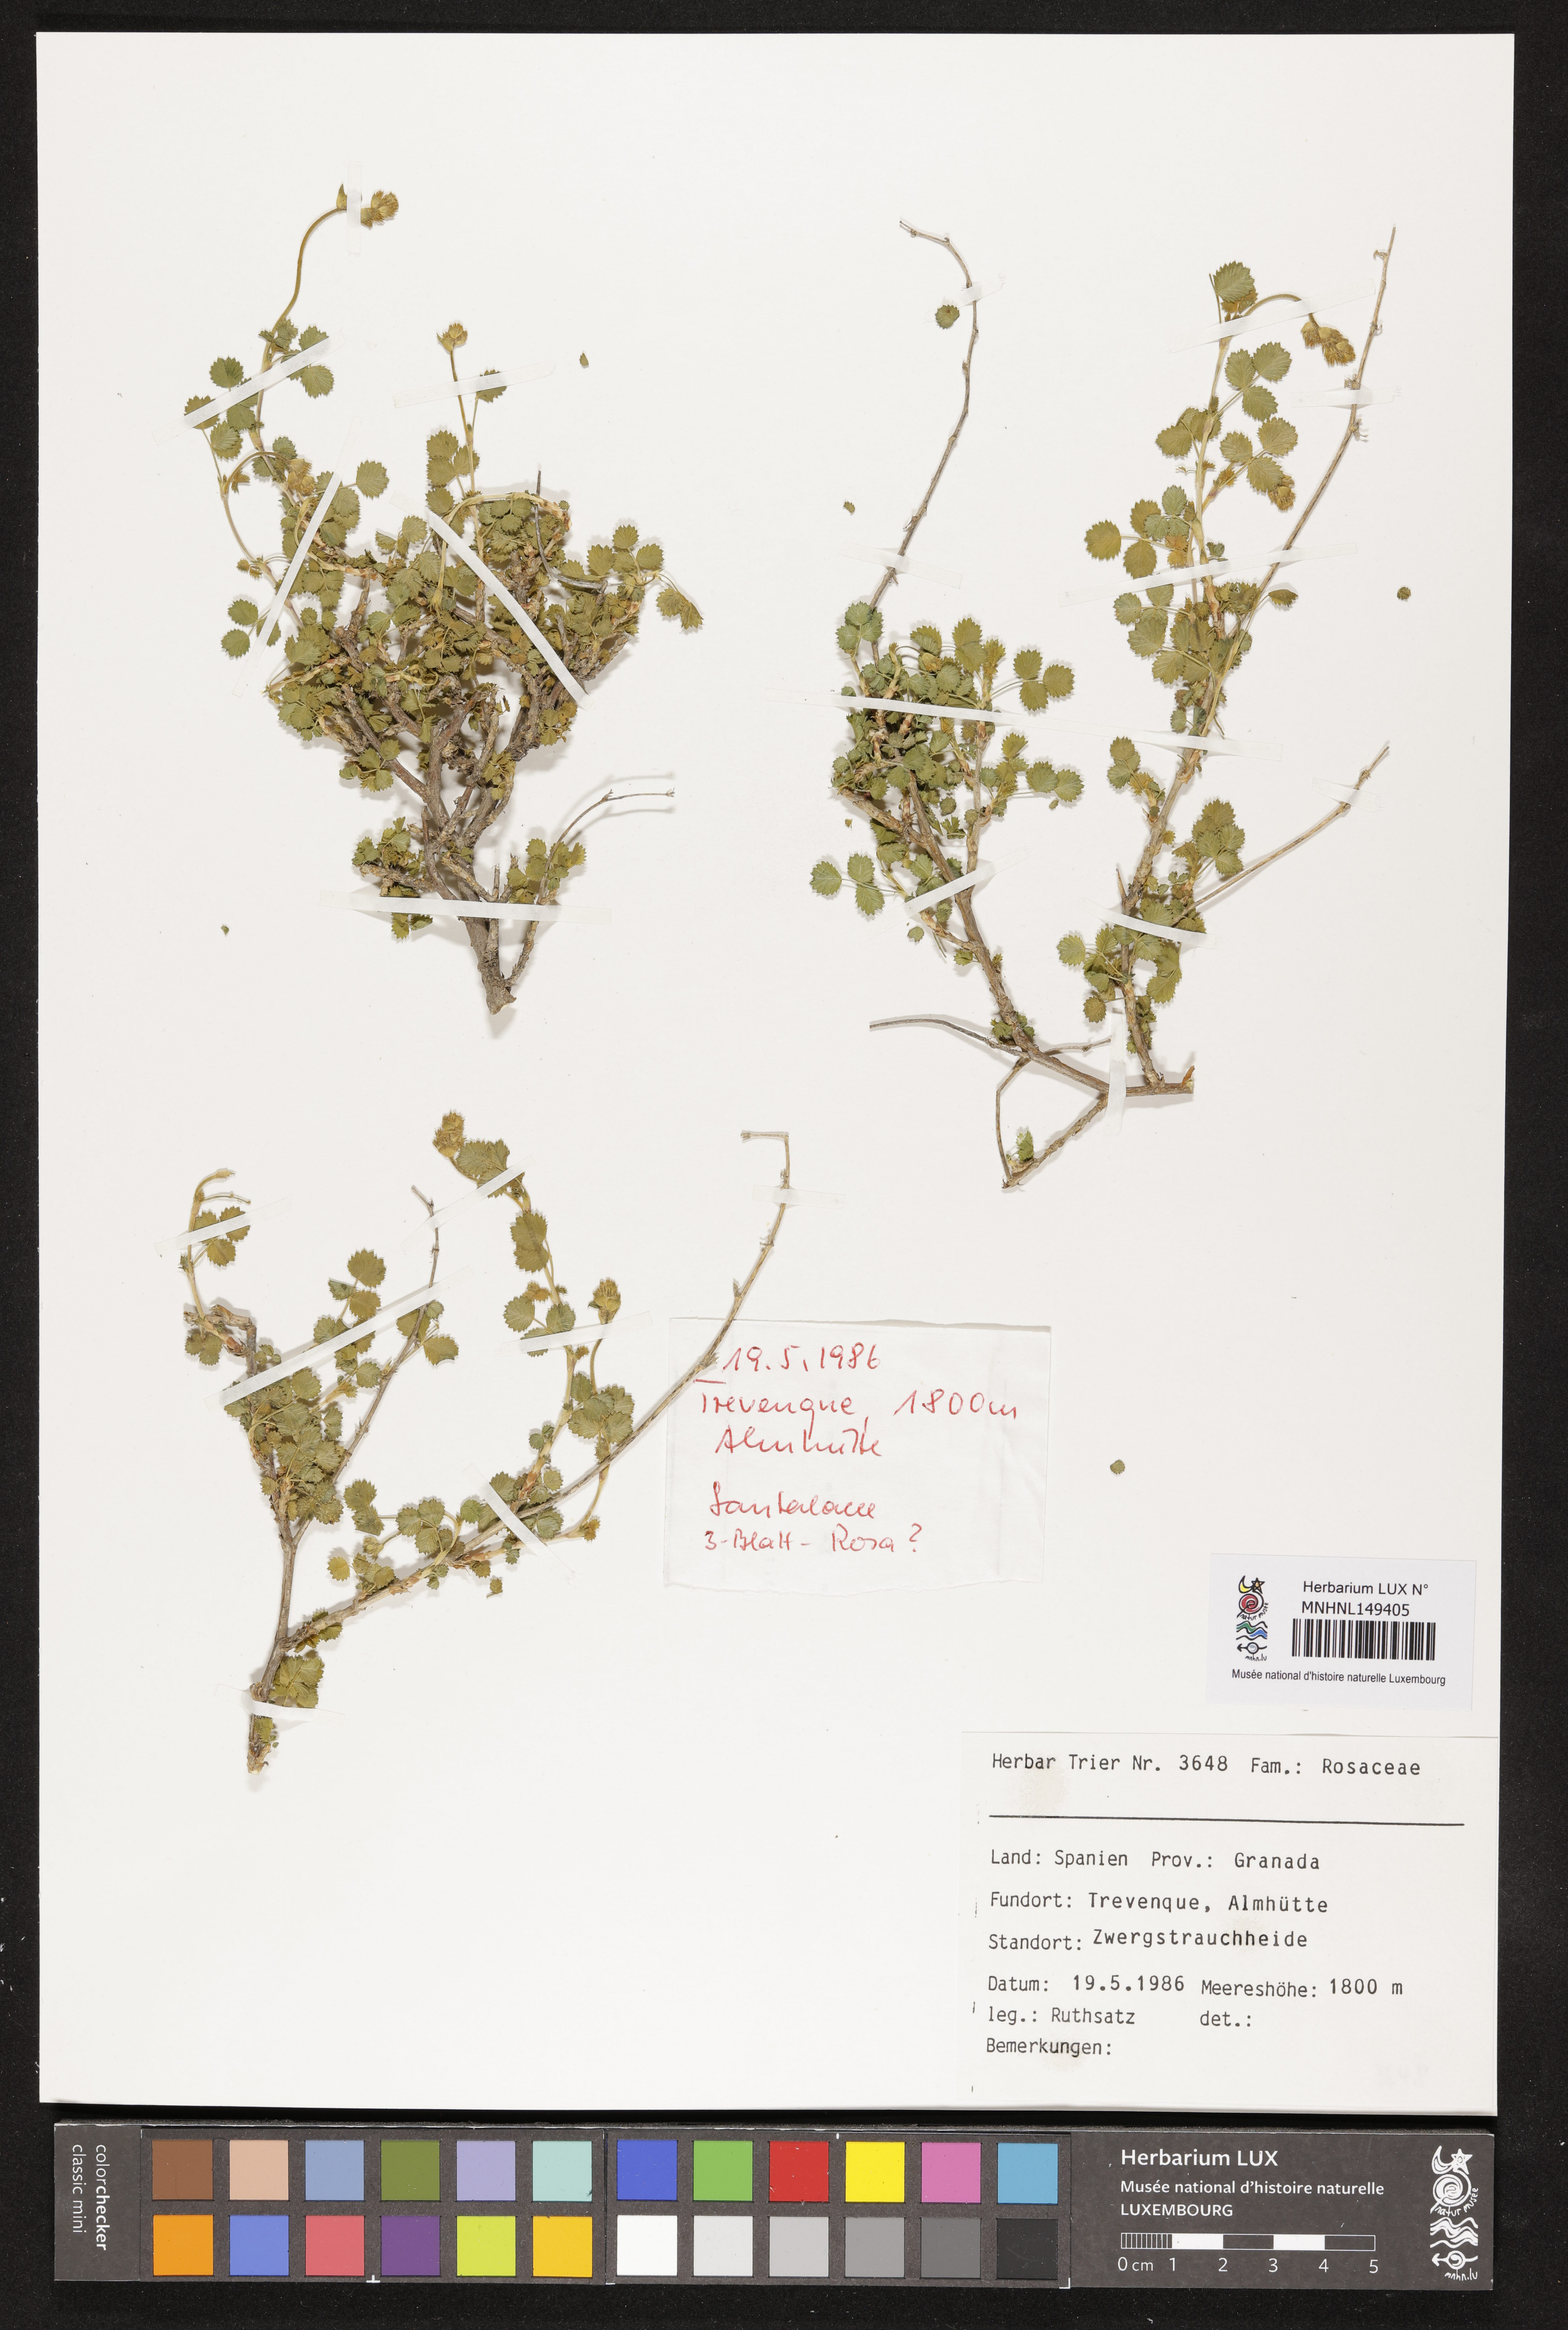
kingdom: Plantae
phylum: Tracheophyta
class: Magnoliopsida
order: Rosales
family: Rosaceae
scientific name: Rosaceae
